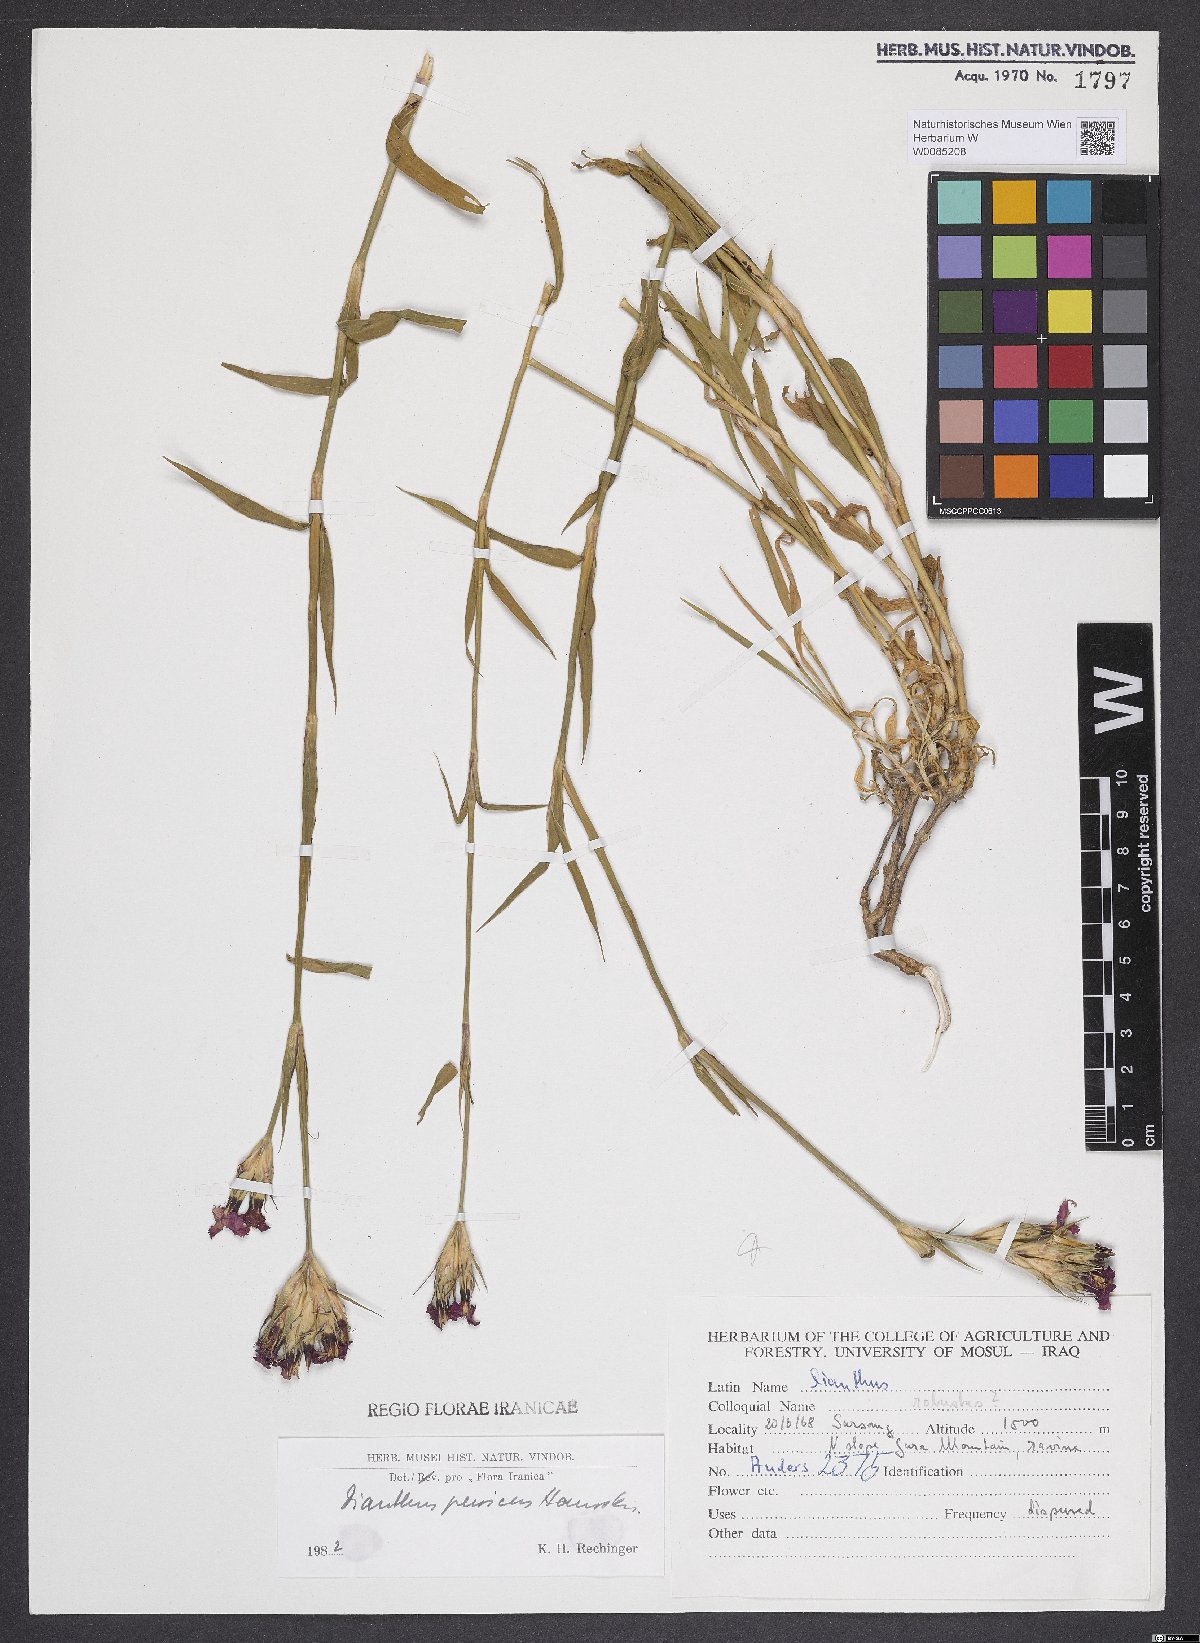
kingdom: Plantae
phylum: Tracheophyta
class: Magnoliopsida
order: Caryophyllales
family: Caryophyllaceae
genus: Dianthus
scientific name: Dianthus persicus
